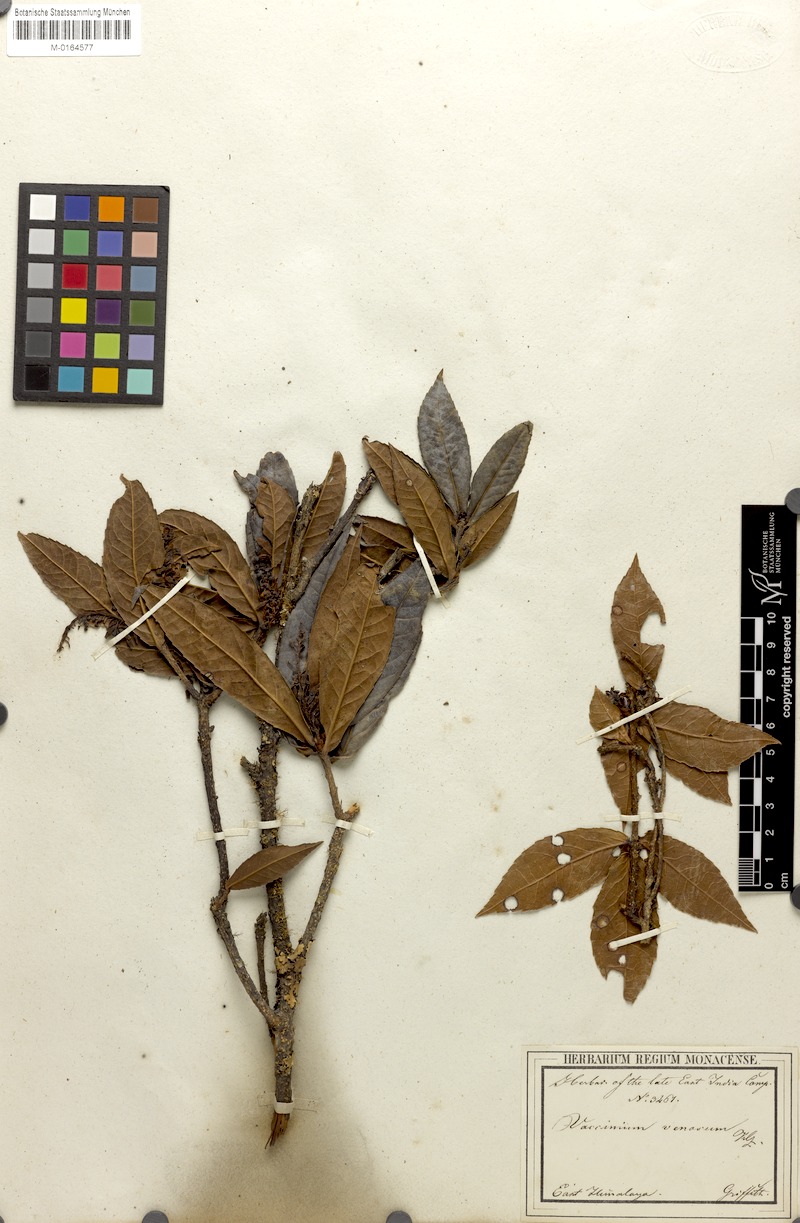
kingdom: Plantae
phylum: Tracheophyta
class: Magnoliopsida
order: Ericales
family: Ericaceae
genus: Vaccinium
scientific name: Vaccinium venosum
